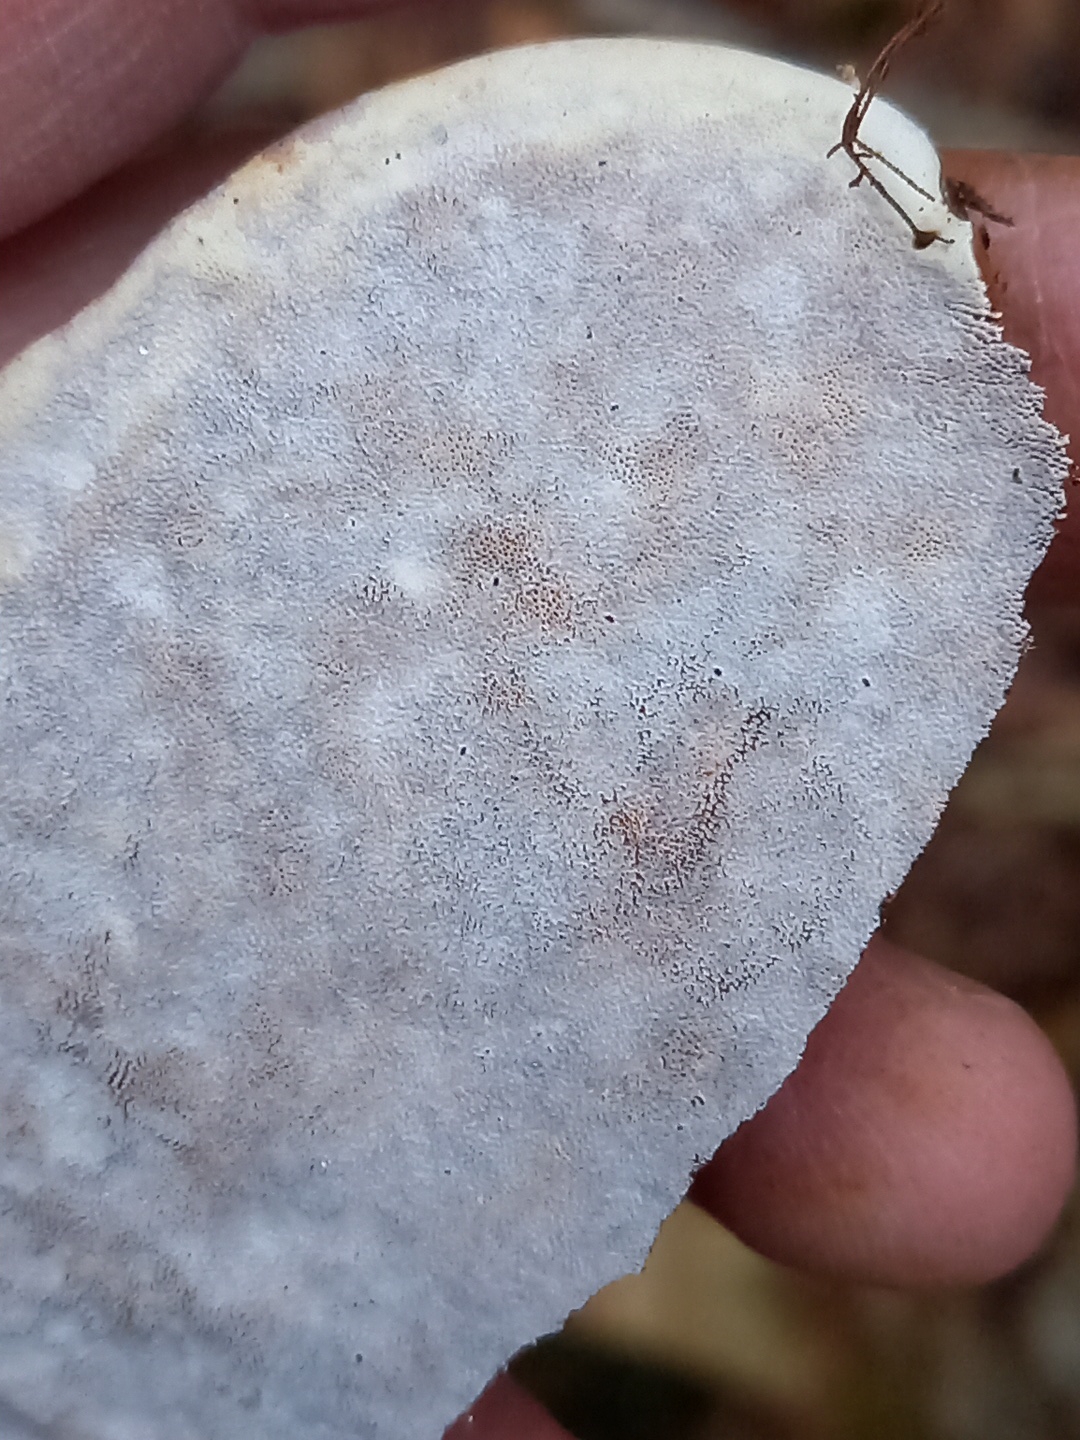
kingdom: Fungi
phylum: Basidiomycota
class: Agaricomycetes
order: Polyporales
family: Polyporaceae
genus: Ganoderma
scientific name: Ganoderma applanatum
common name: flad lakporesvamp
